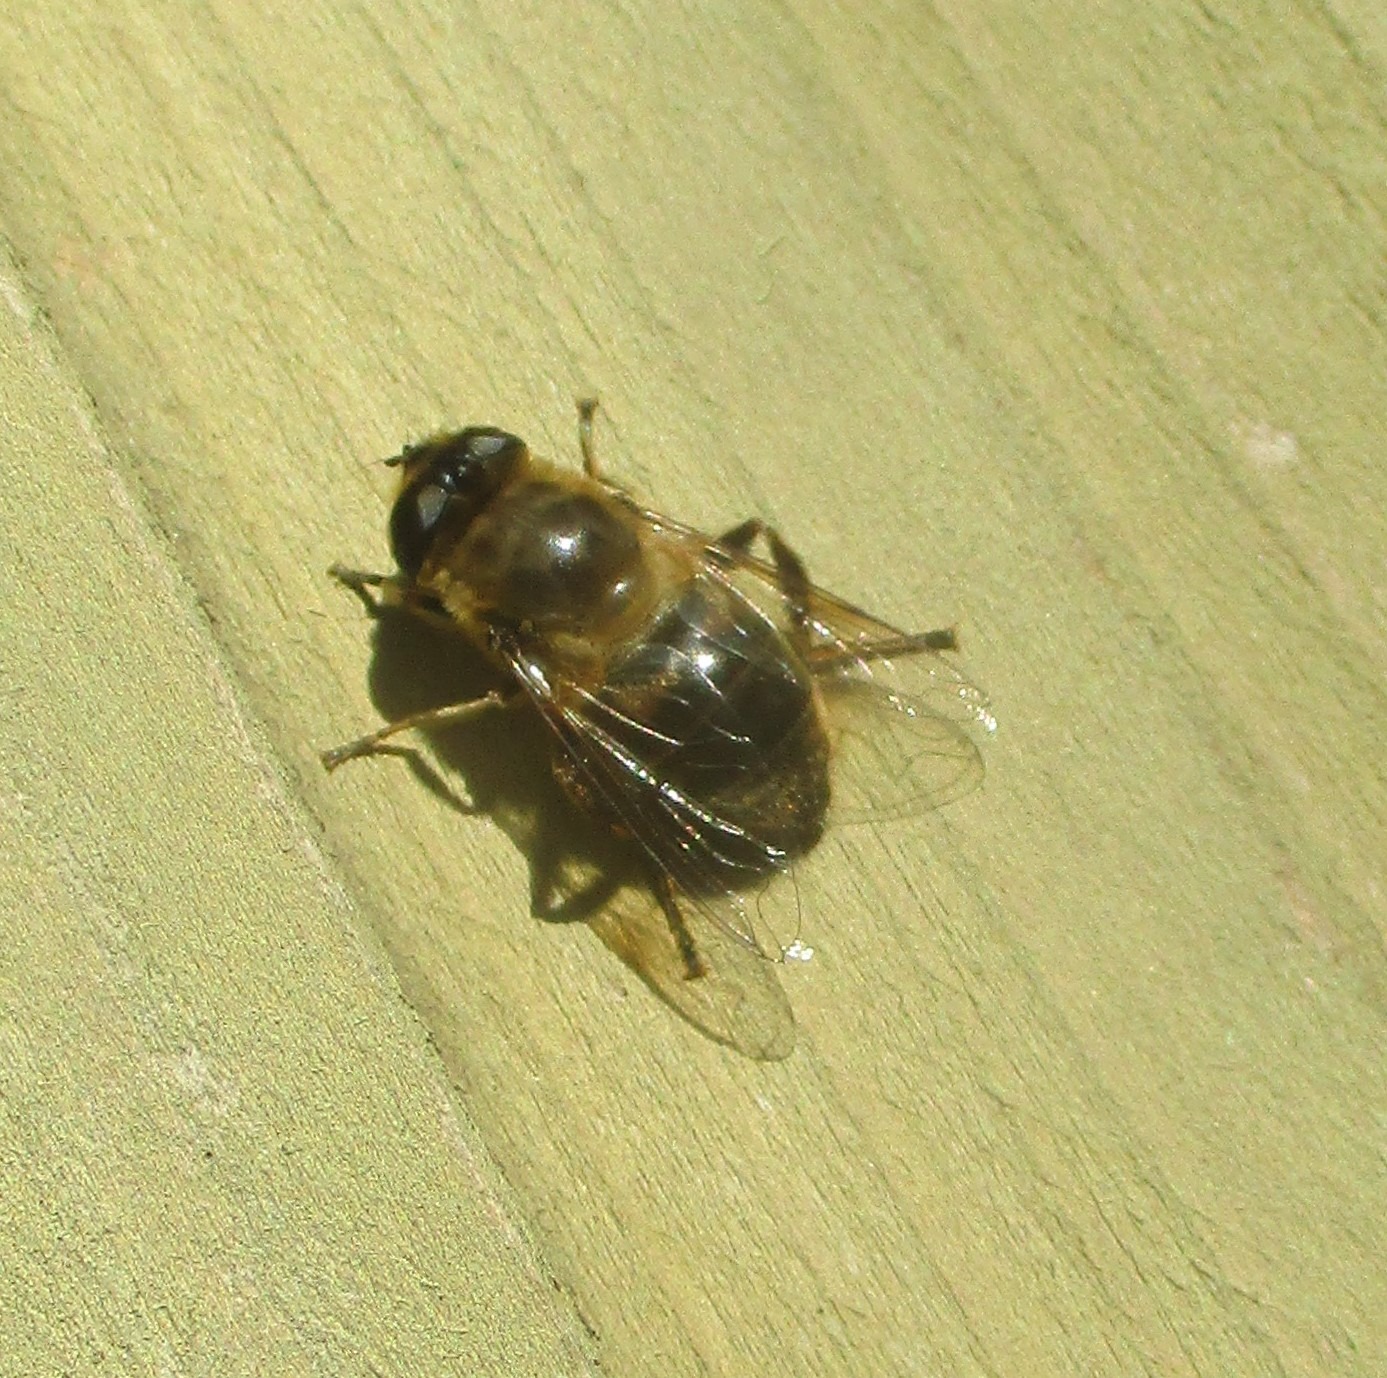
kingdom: Animalia
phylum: Arthropoda
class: Insecta
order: Diptera
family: Syrphidae
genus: Eristalis
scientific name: Eristalis tenax
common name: Droneflue
